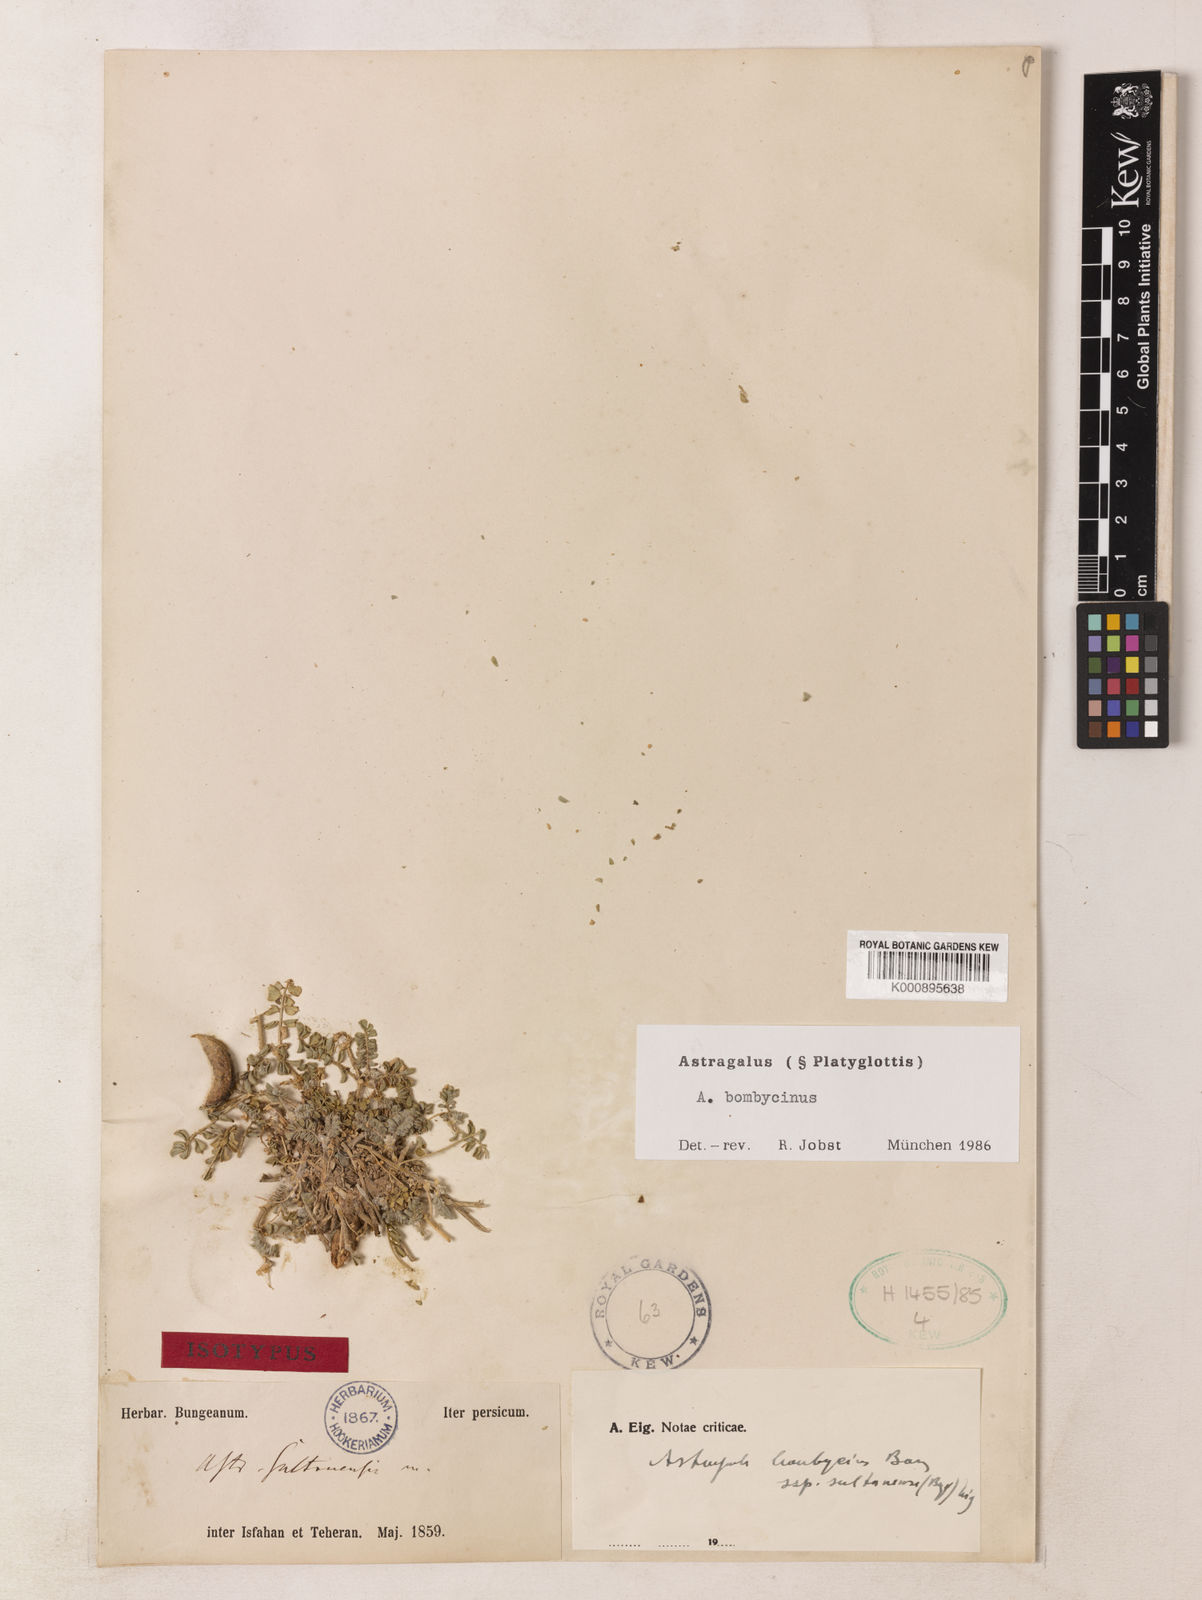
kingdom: Plantae
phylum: Tracheophyta
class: Magnoliopsida
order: Fabales
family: Fabaceae
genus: Astragalus
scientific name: Astragalus bombycinus
